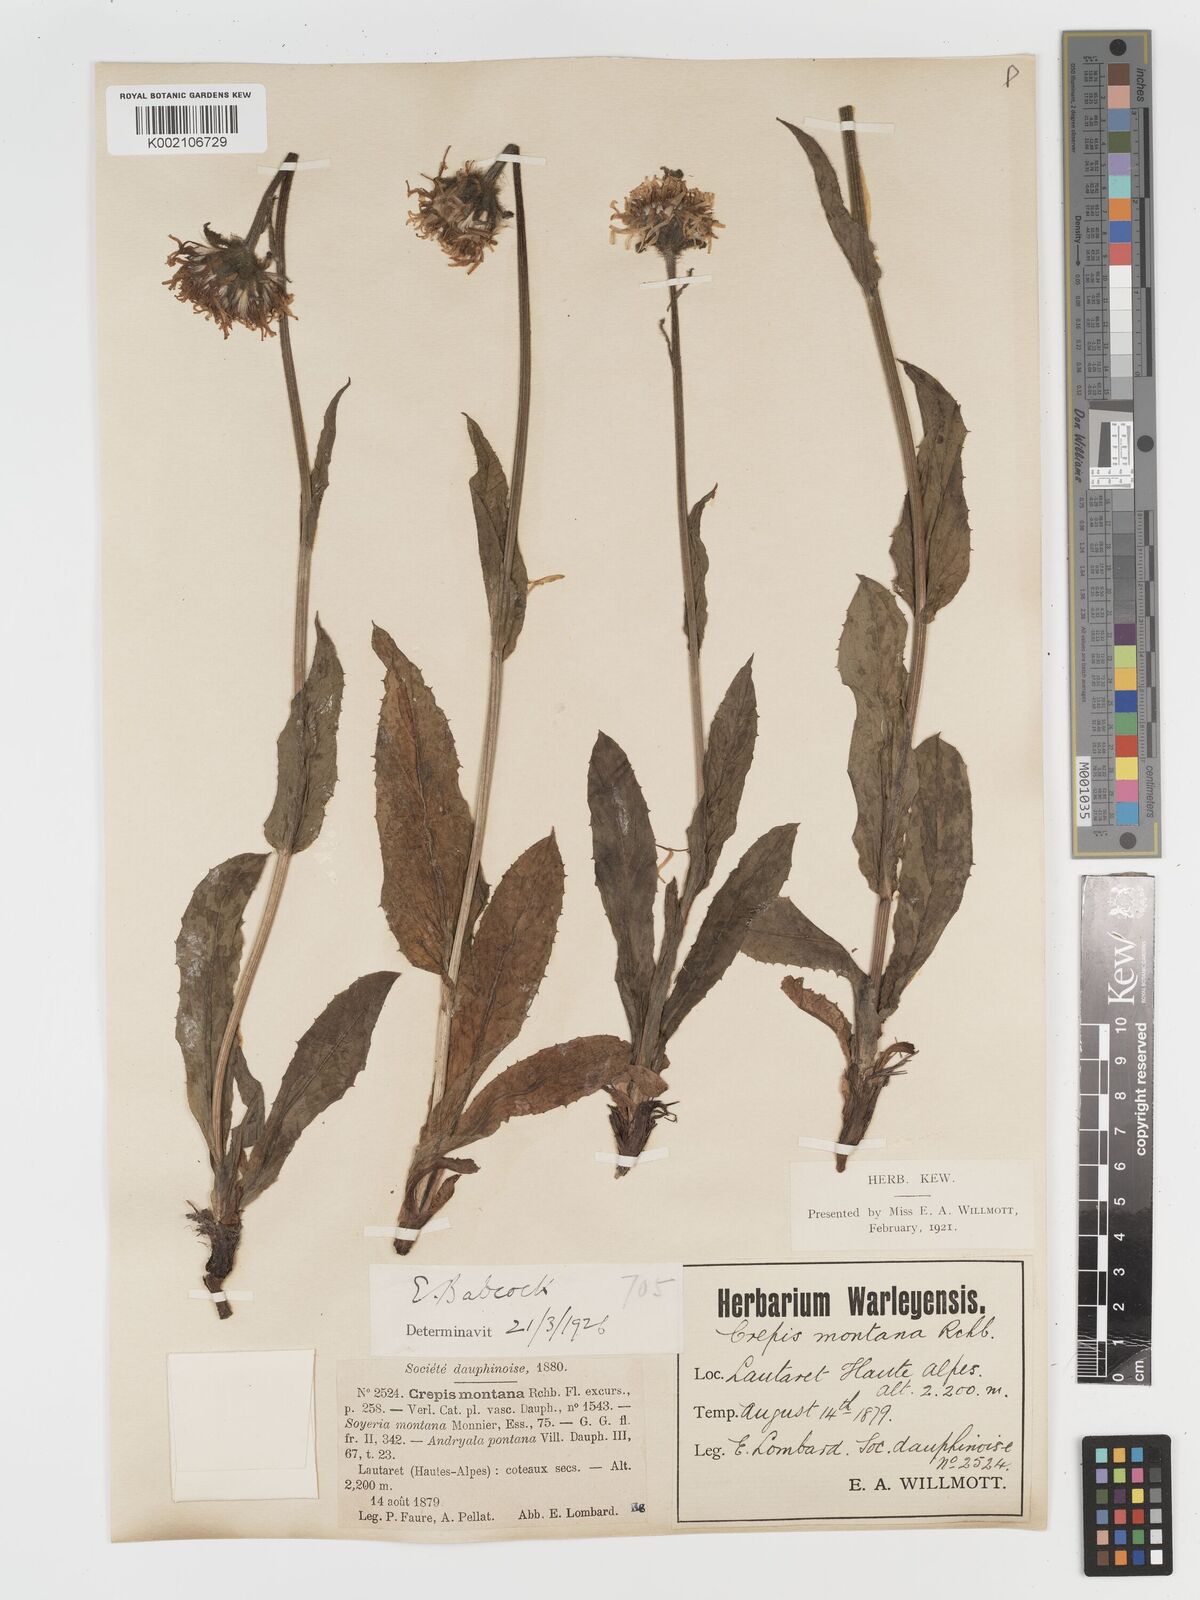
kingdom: Plantae
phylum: Tracheophyta
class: Magnoliopsida
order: Asterales
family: Asteraceae
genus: Crepis
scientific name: Crepis pontana
